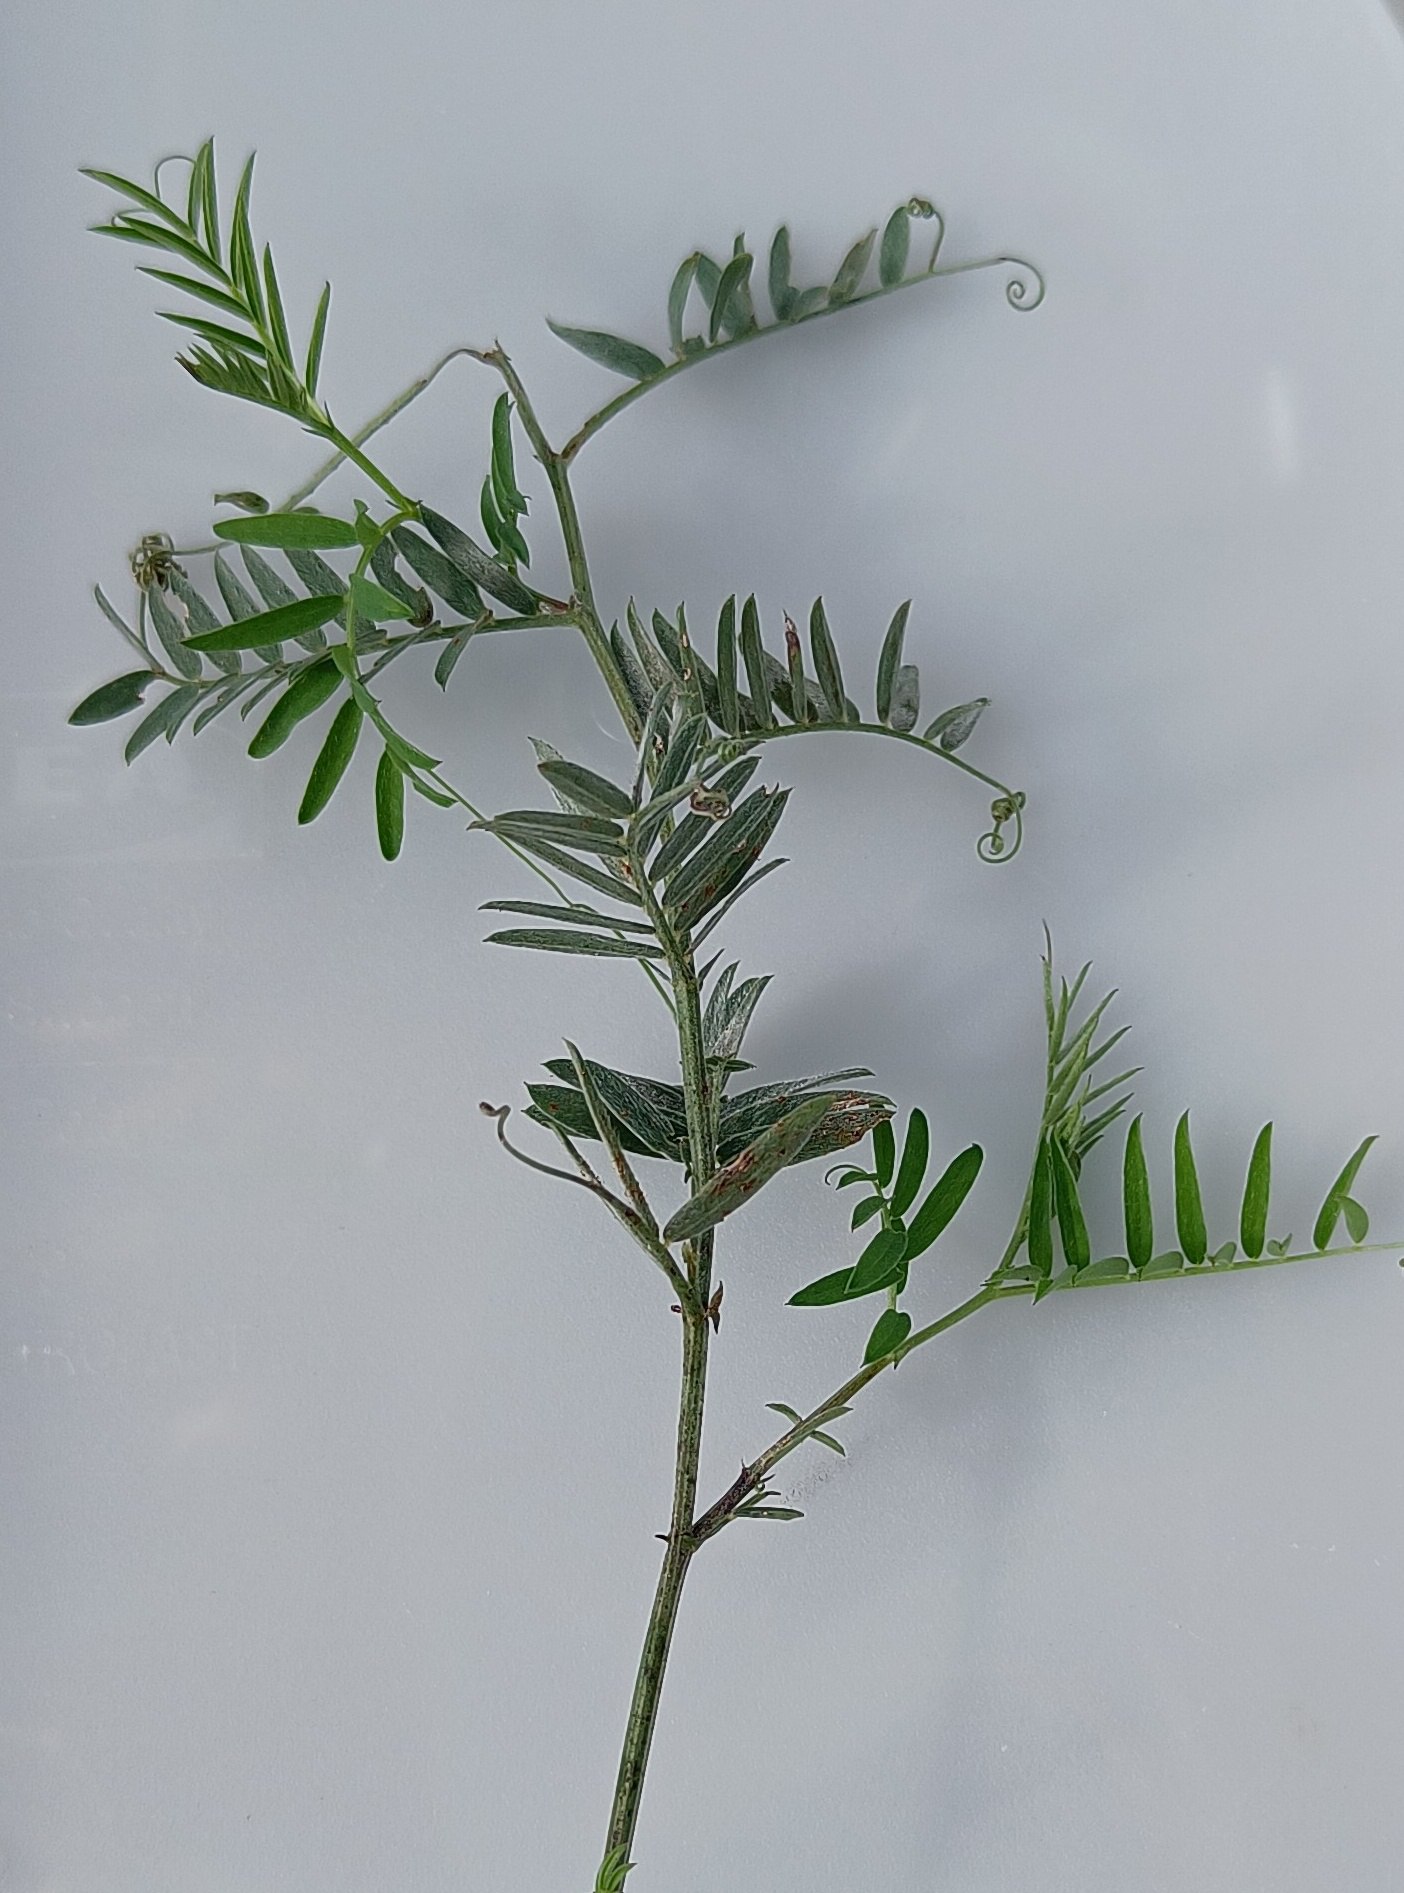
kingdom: Plantae
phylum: Tracheophyta
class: Magnoliopsida
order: Fabales
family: Fabaceae
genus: Vicia
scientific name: Vicia cracca
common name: Muse-vikke
